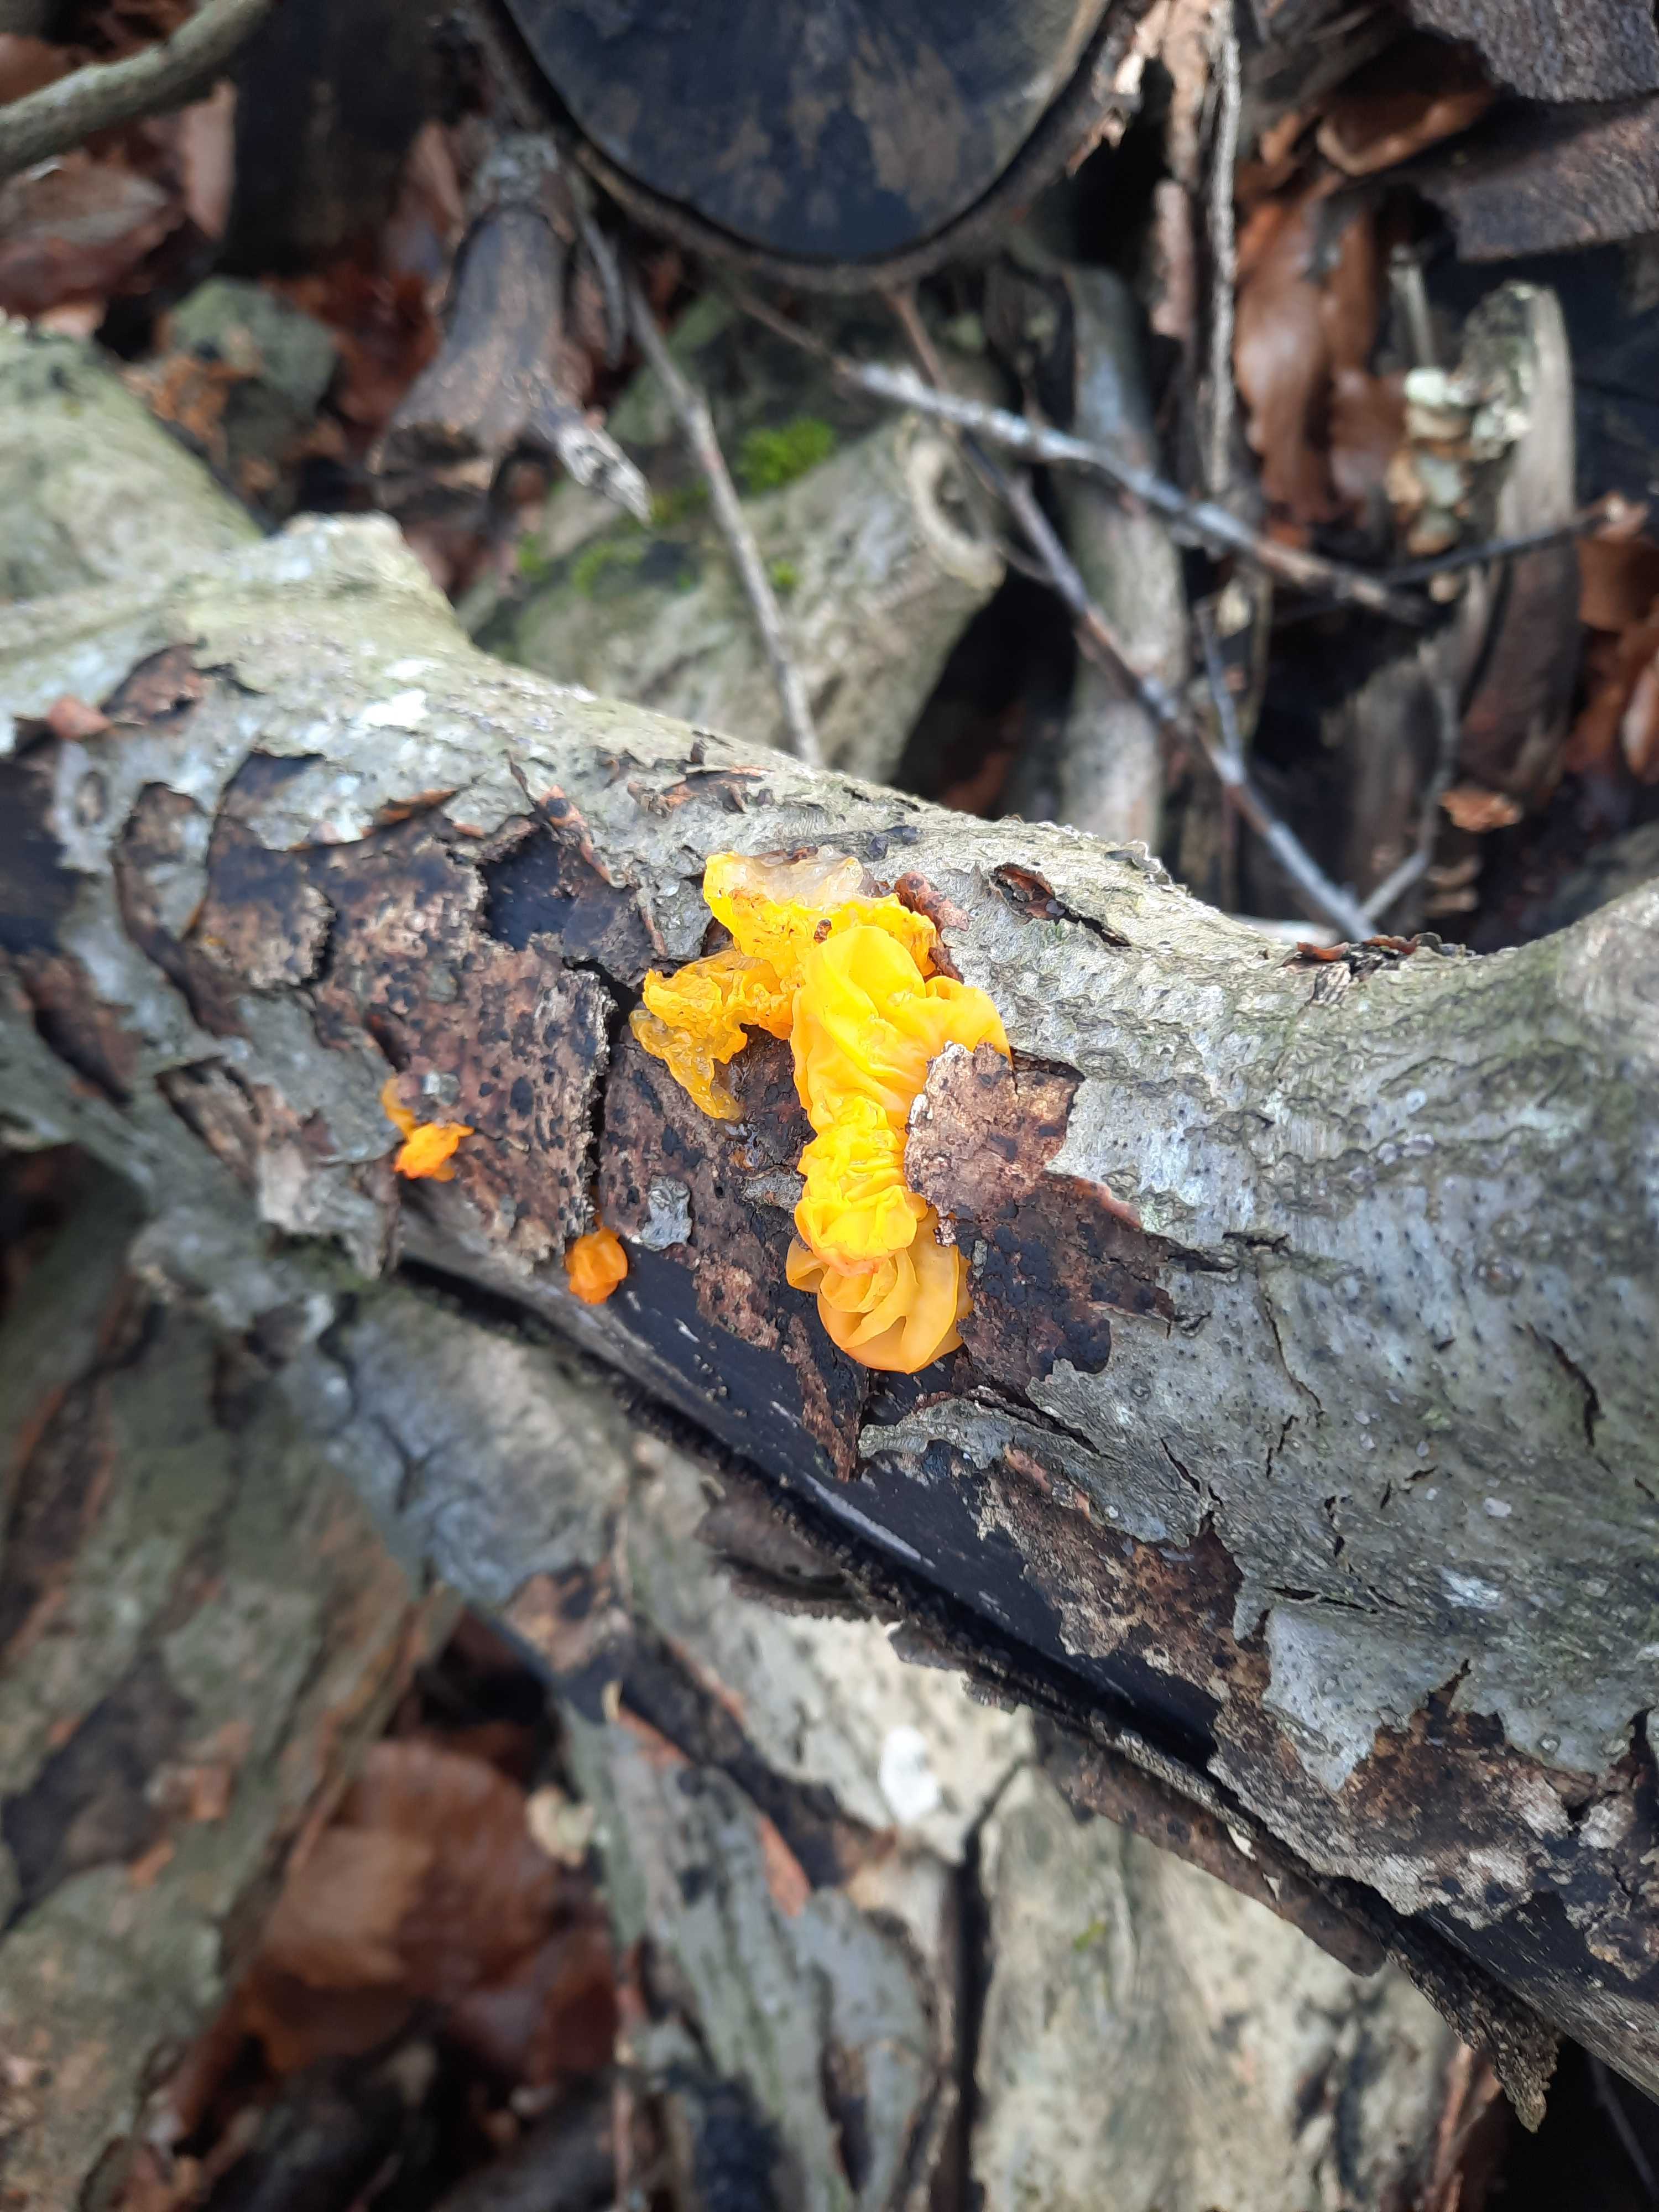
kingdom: Fungi
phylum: Basidiomycota
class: Tremellomycetes
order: Tremellales
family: Tremellaceae
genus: Tremella
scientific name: Tremella mesenterica
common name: gul bævresvamp
